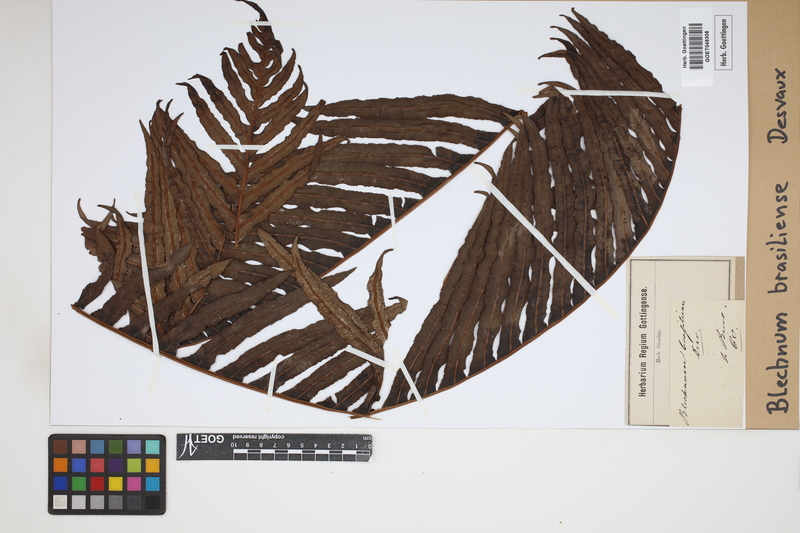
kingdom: Plantae
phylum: Tracheophyta
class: Polypodiopsida
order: Polypodiales
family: Blechnaceae
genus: Neoblechnum
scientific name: Neoblechnum brasiliense
